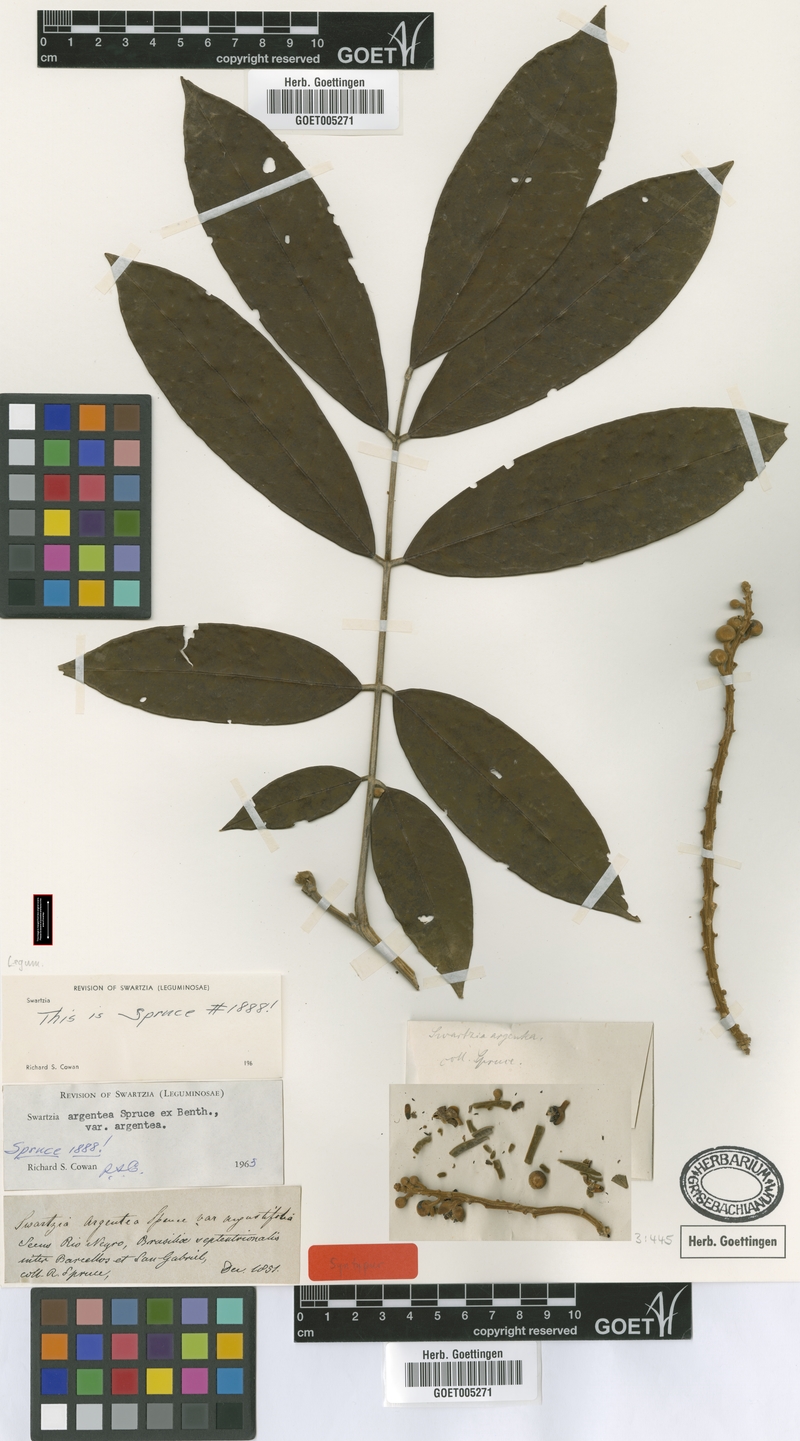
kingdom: Plantae
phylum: Tracheophyta
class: Magnoliopsida
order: Fabales
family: Fabaceae
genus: Swartzia
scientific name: Swartzia argentea
